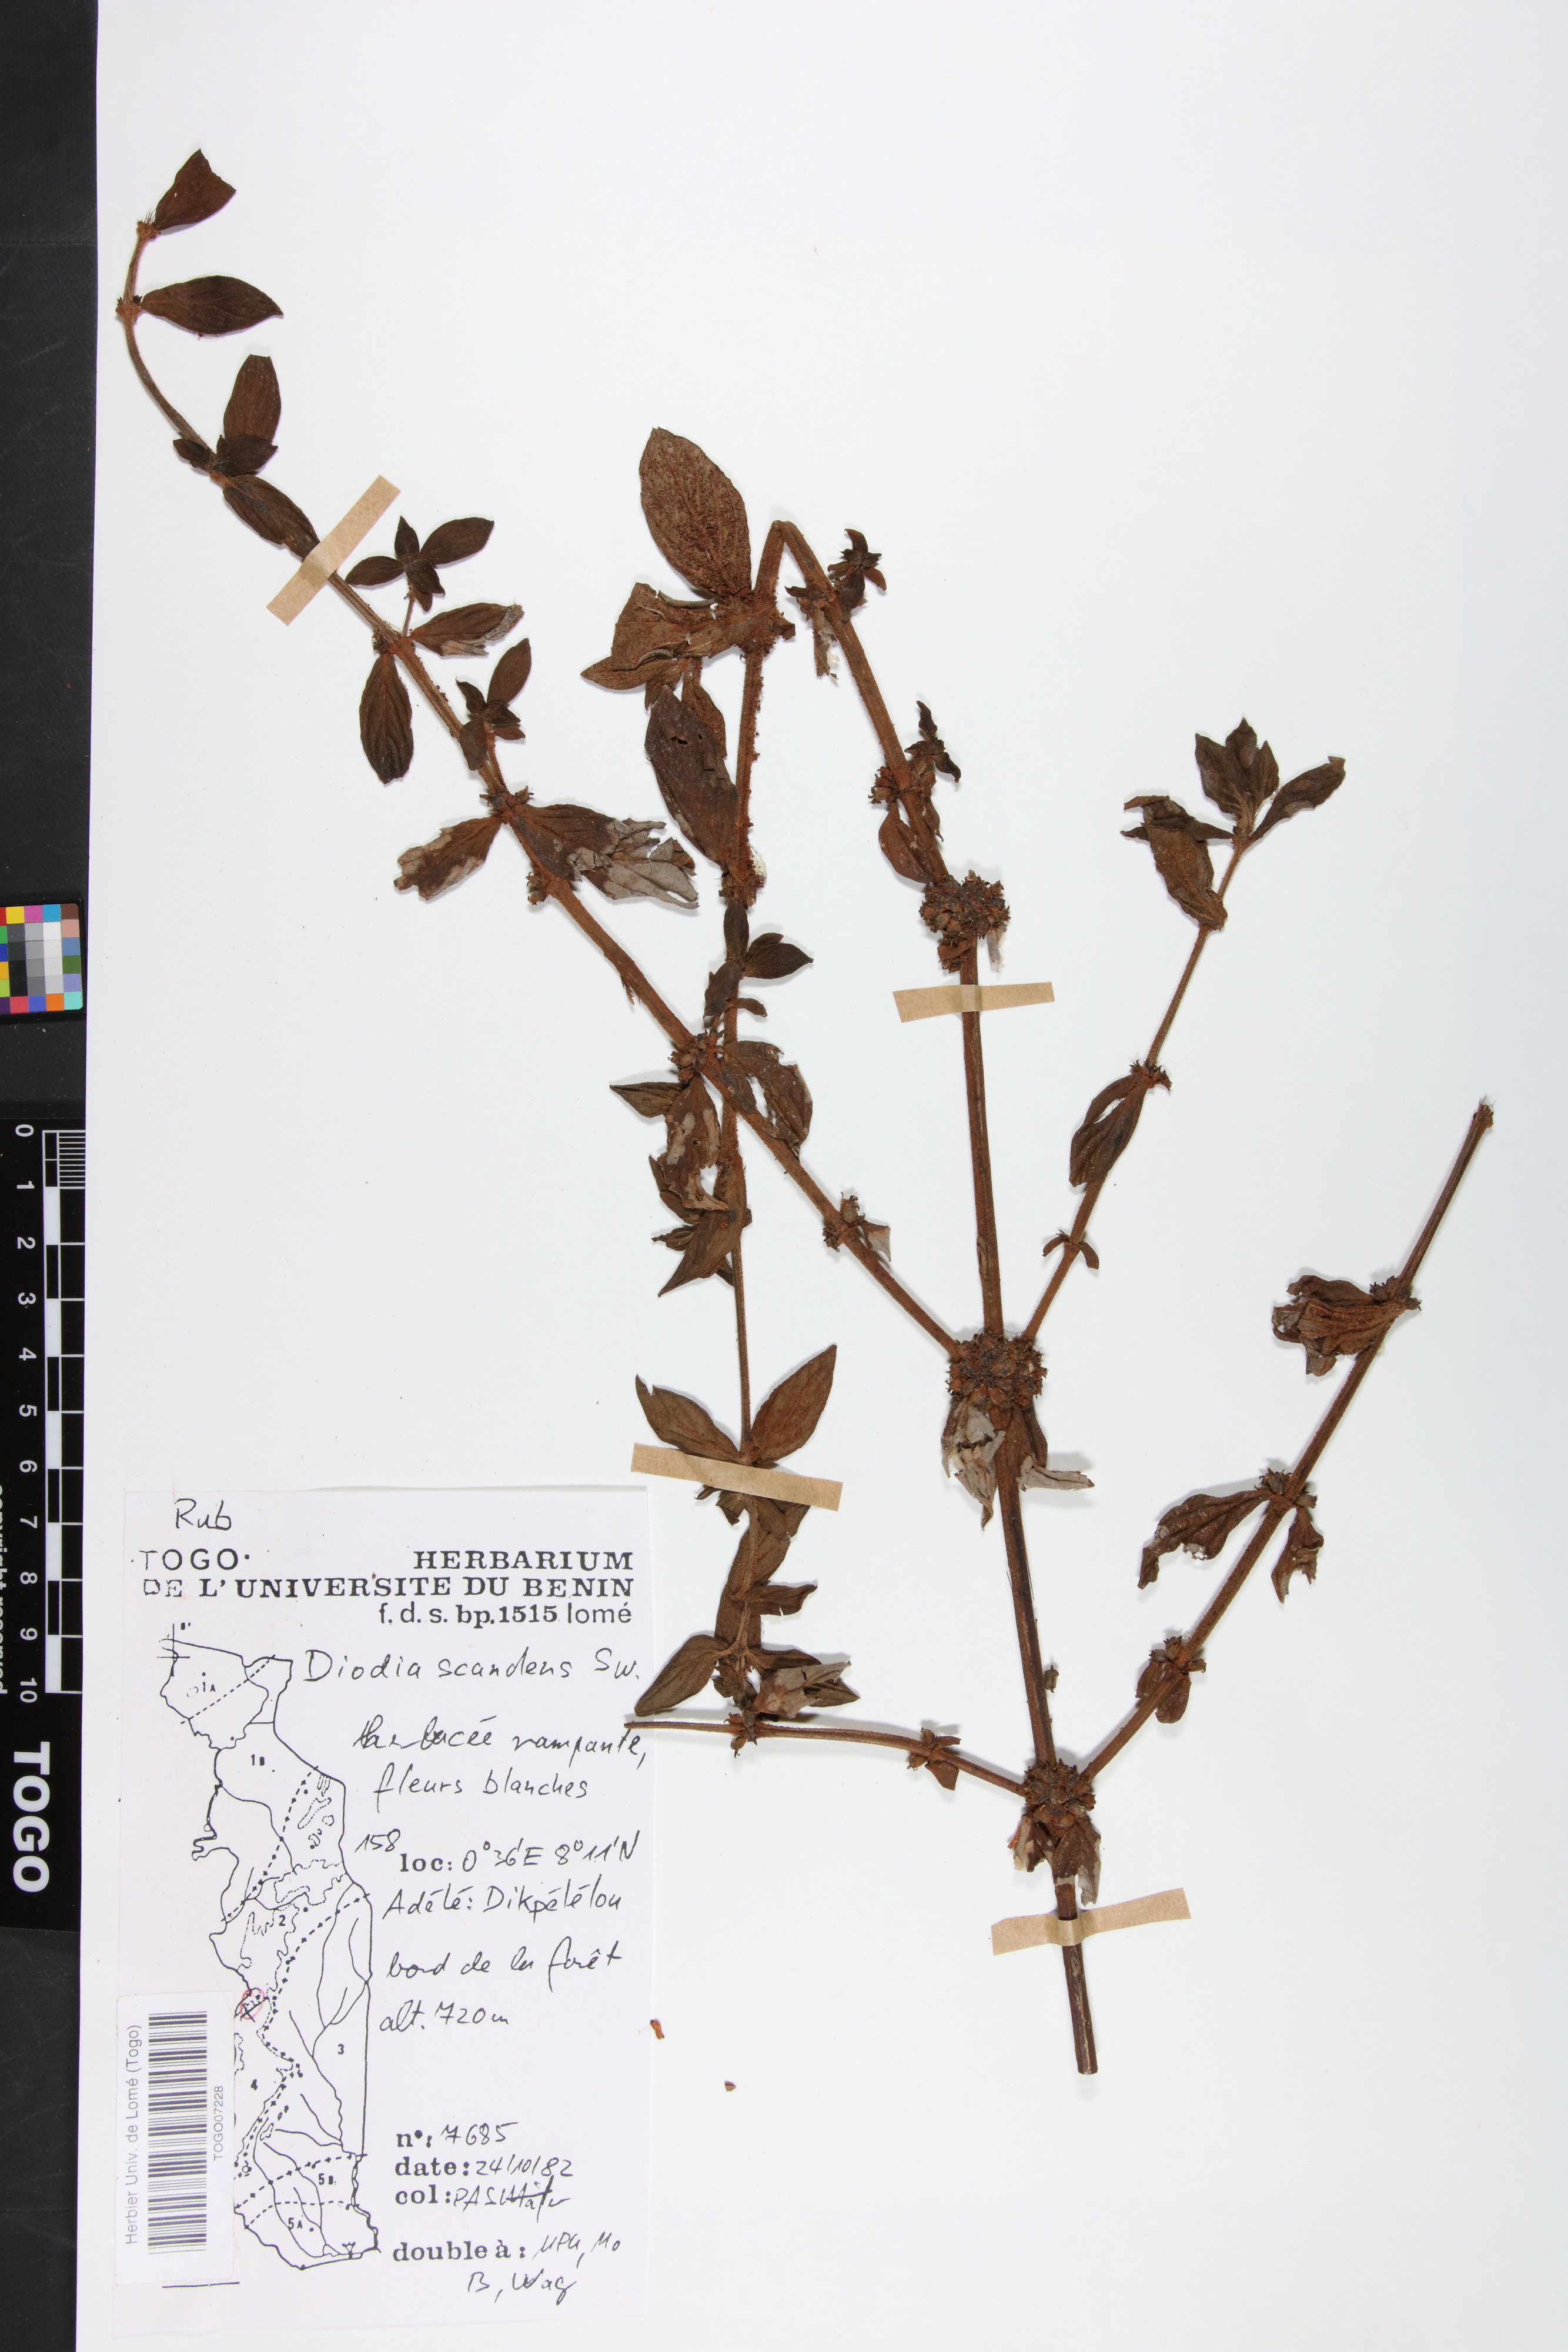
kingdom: Plantae
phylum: Tracheophyta
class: Magnoliopsida
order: Gentianales
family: Rubiaceae
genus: Hexasepalum
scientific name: Hexasepalum scandens
